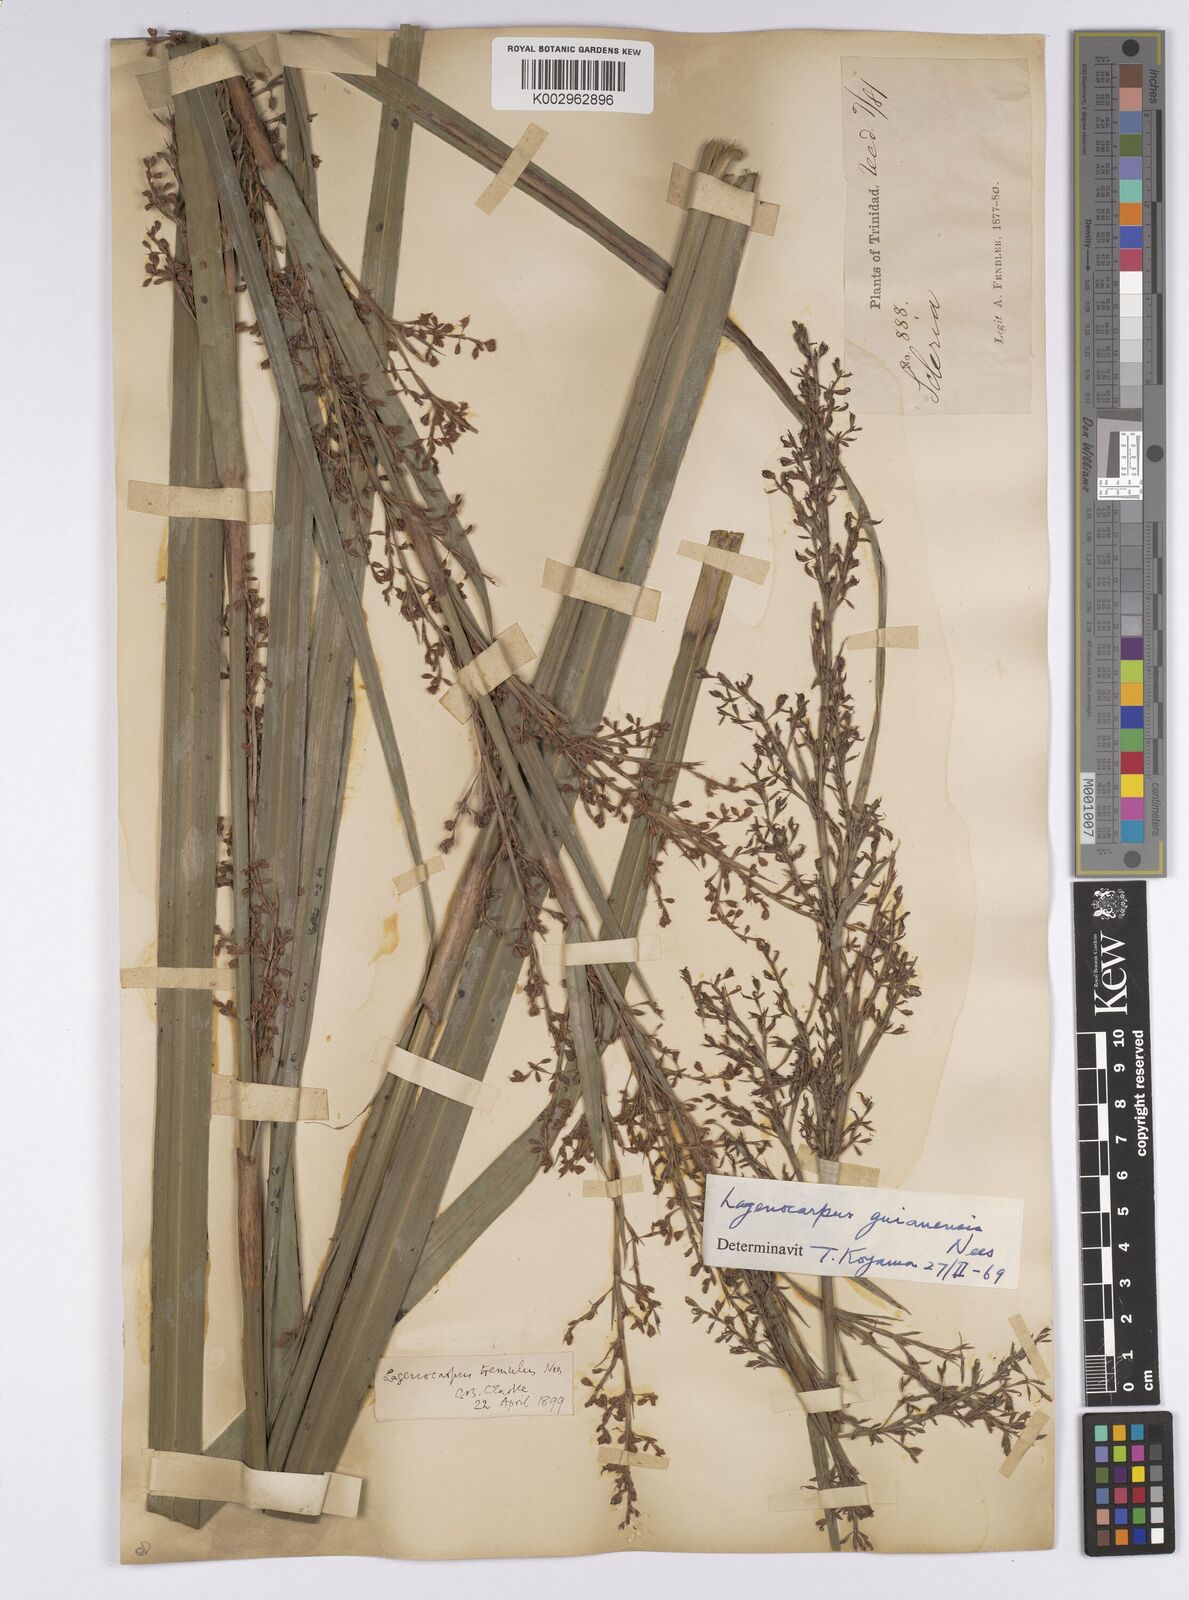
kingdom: Plantae
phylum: Tracheophyta
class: Liliopsida
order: Poales
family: Cyperaceae
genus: Lagenocarpus
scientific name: Lagenocarpus guianensis
